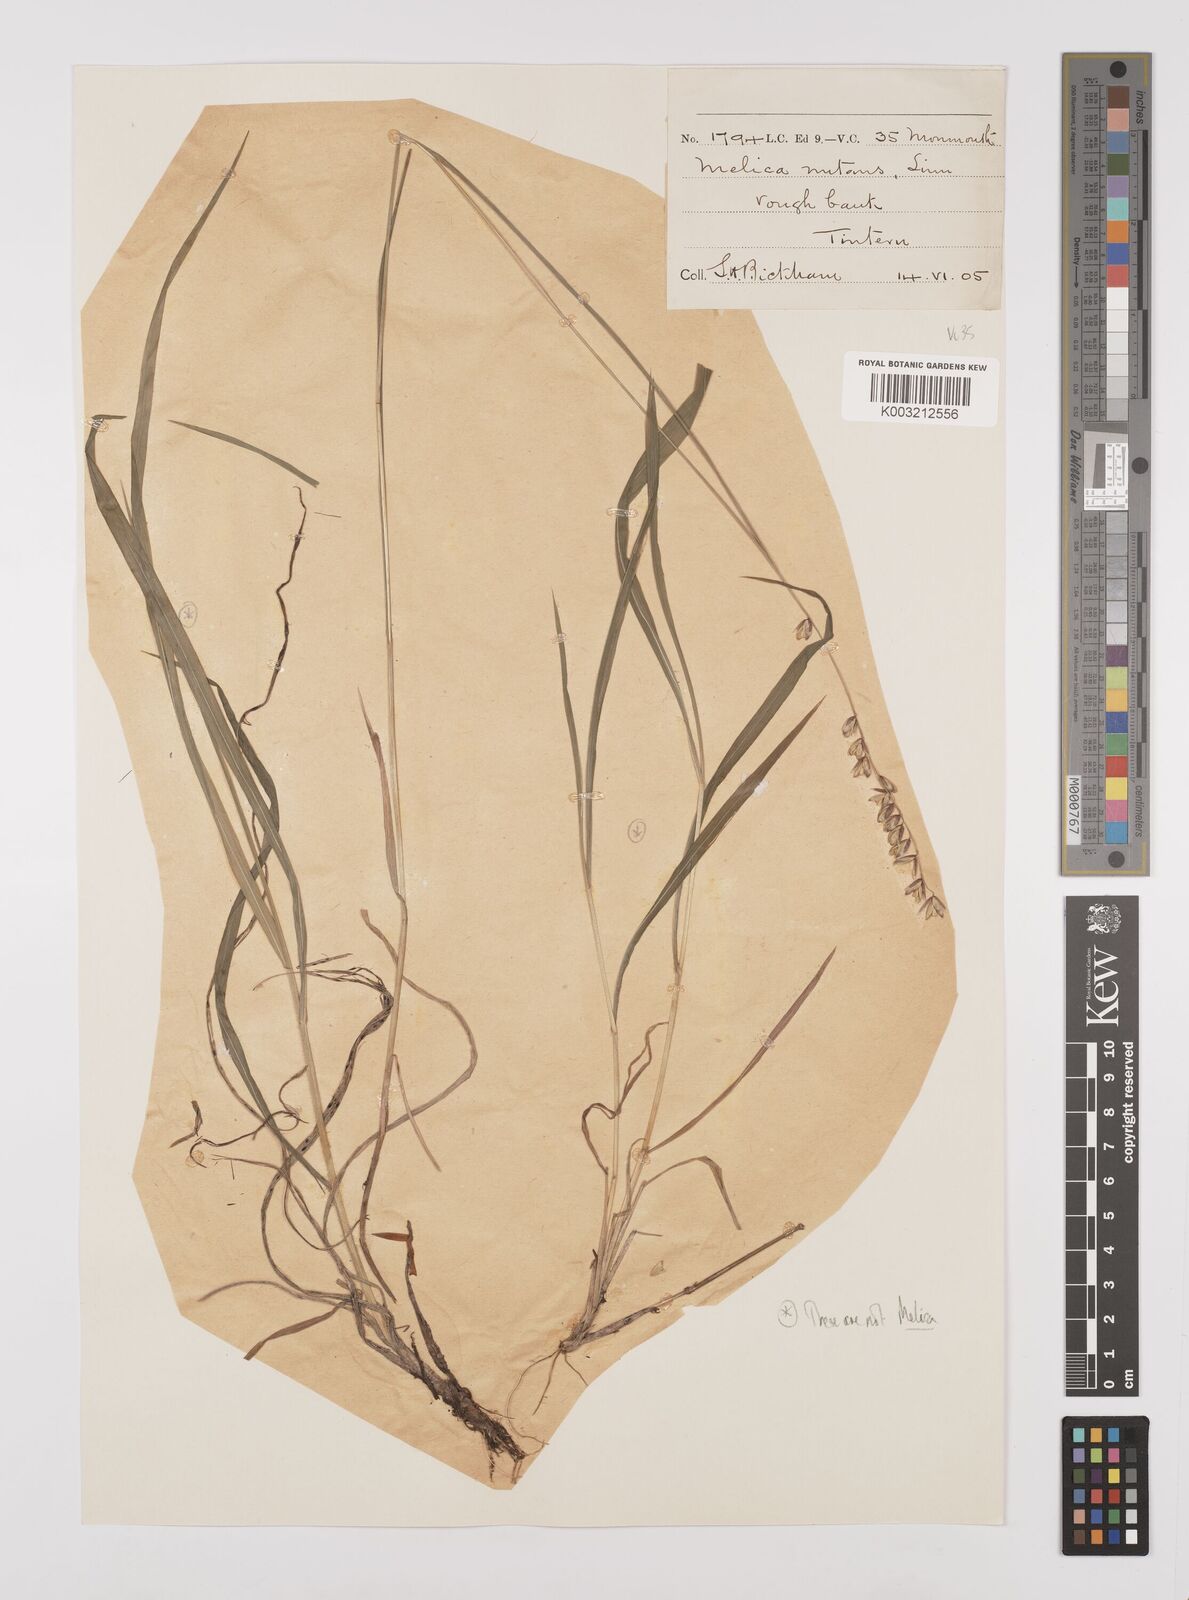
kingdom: Plantae
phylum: Tracheophyta
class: Liliopsida
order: Poales
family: Poaceae
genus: Melica
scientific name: Melica
